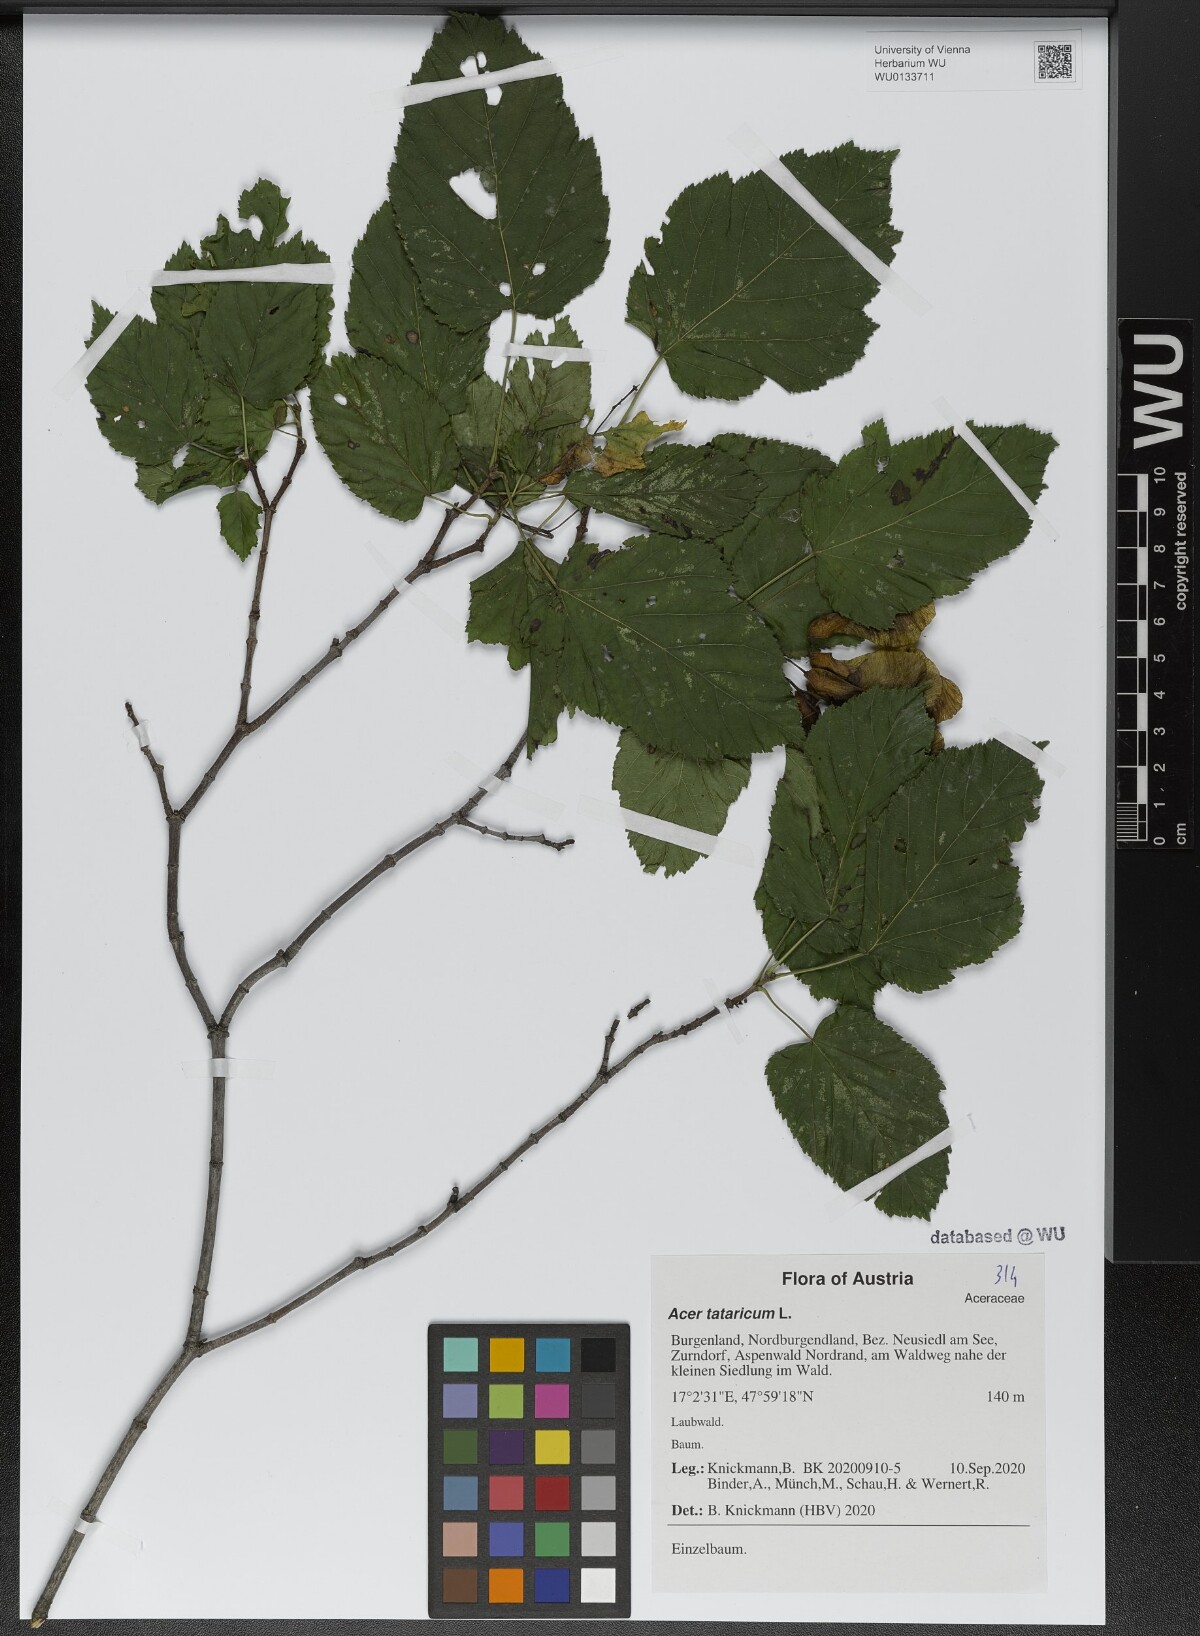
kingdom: Plantae
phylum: Tracheophyta
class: Magnoliopsida
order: Sapindales
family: Sapindaceae
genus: Acer
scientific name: Acer tataricum
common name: Tartar maple
